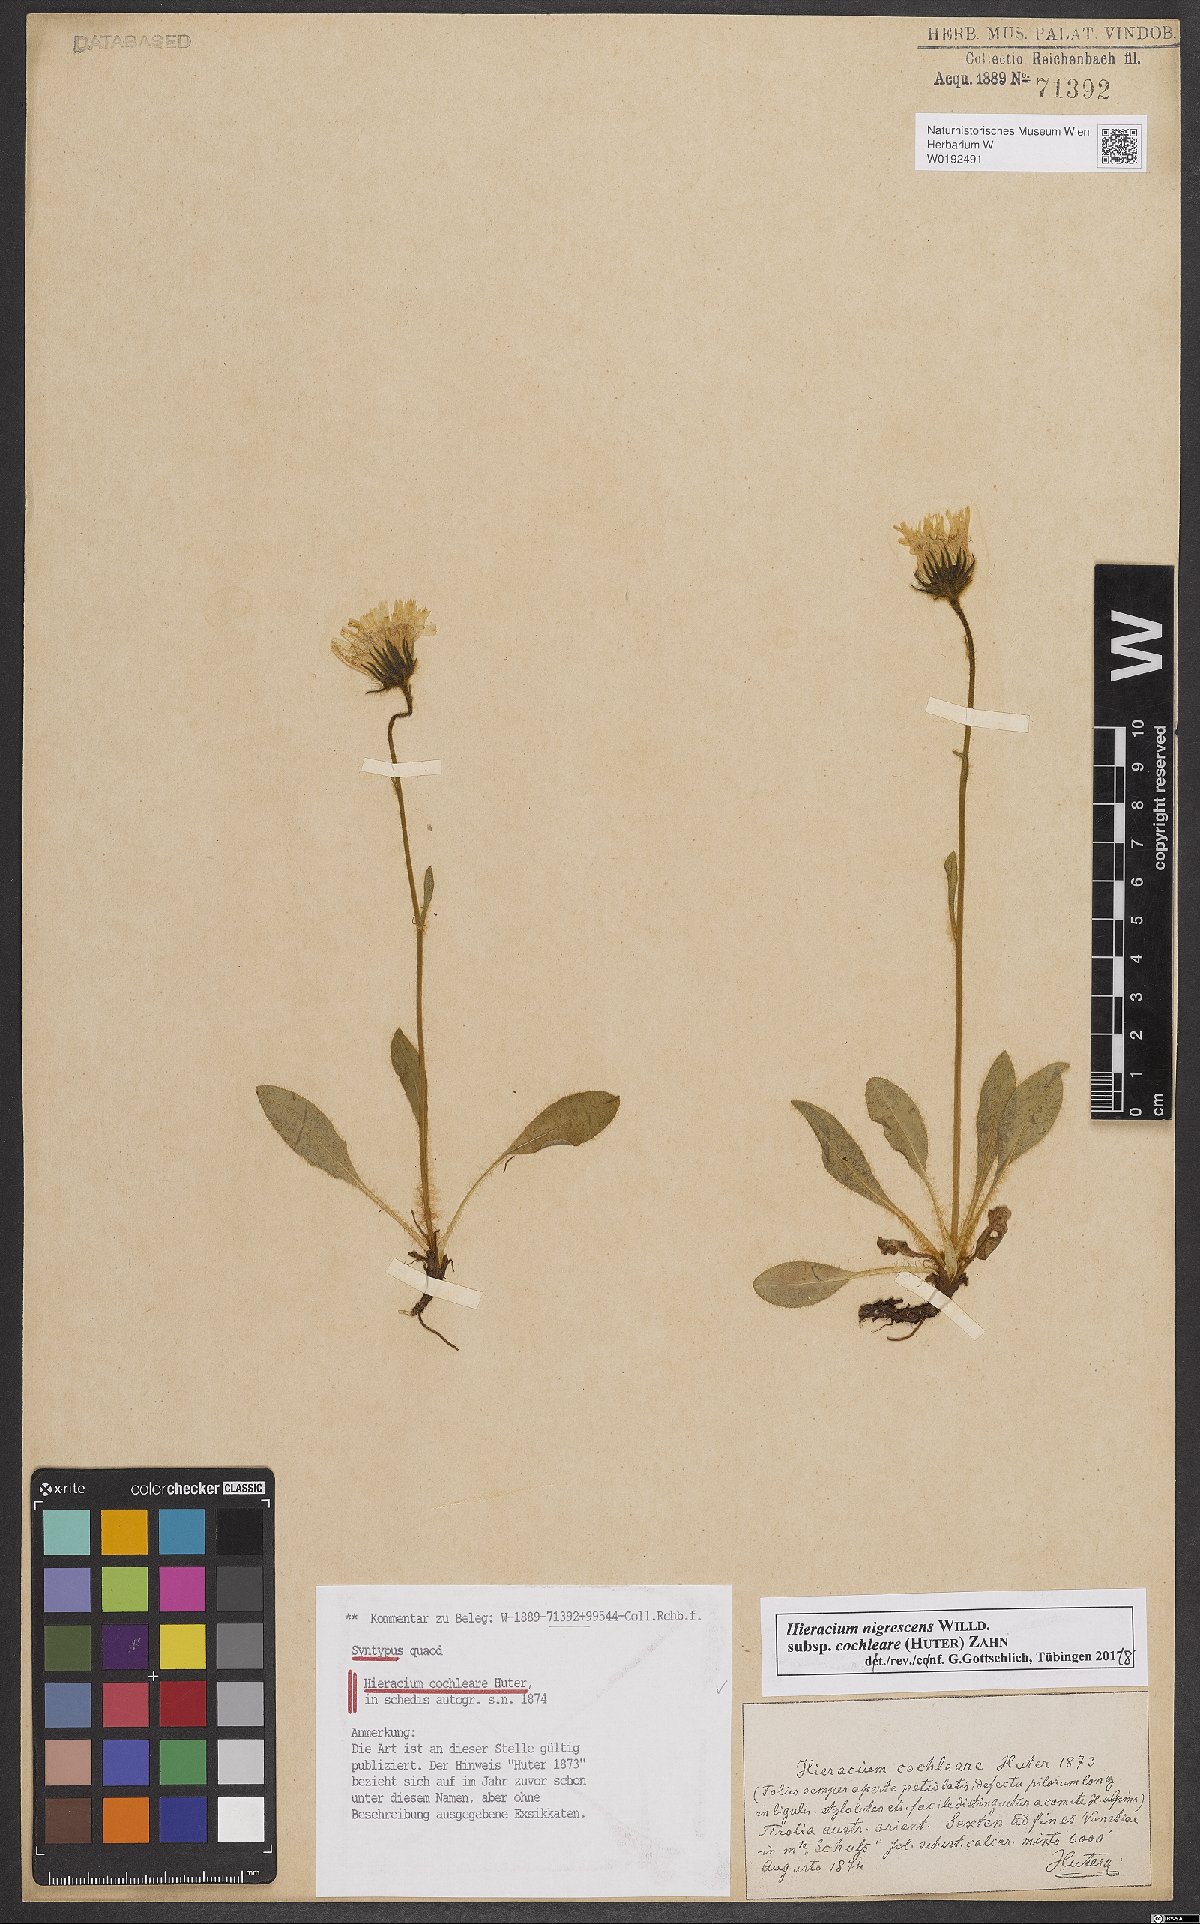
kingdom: Plantae
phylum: Tracheophyta
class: Magnoliopsida
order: Asterales
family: Asteraceae
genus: Hieracium
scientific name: Hieracium nigrescens
